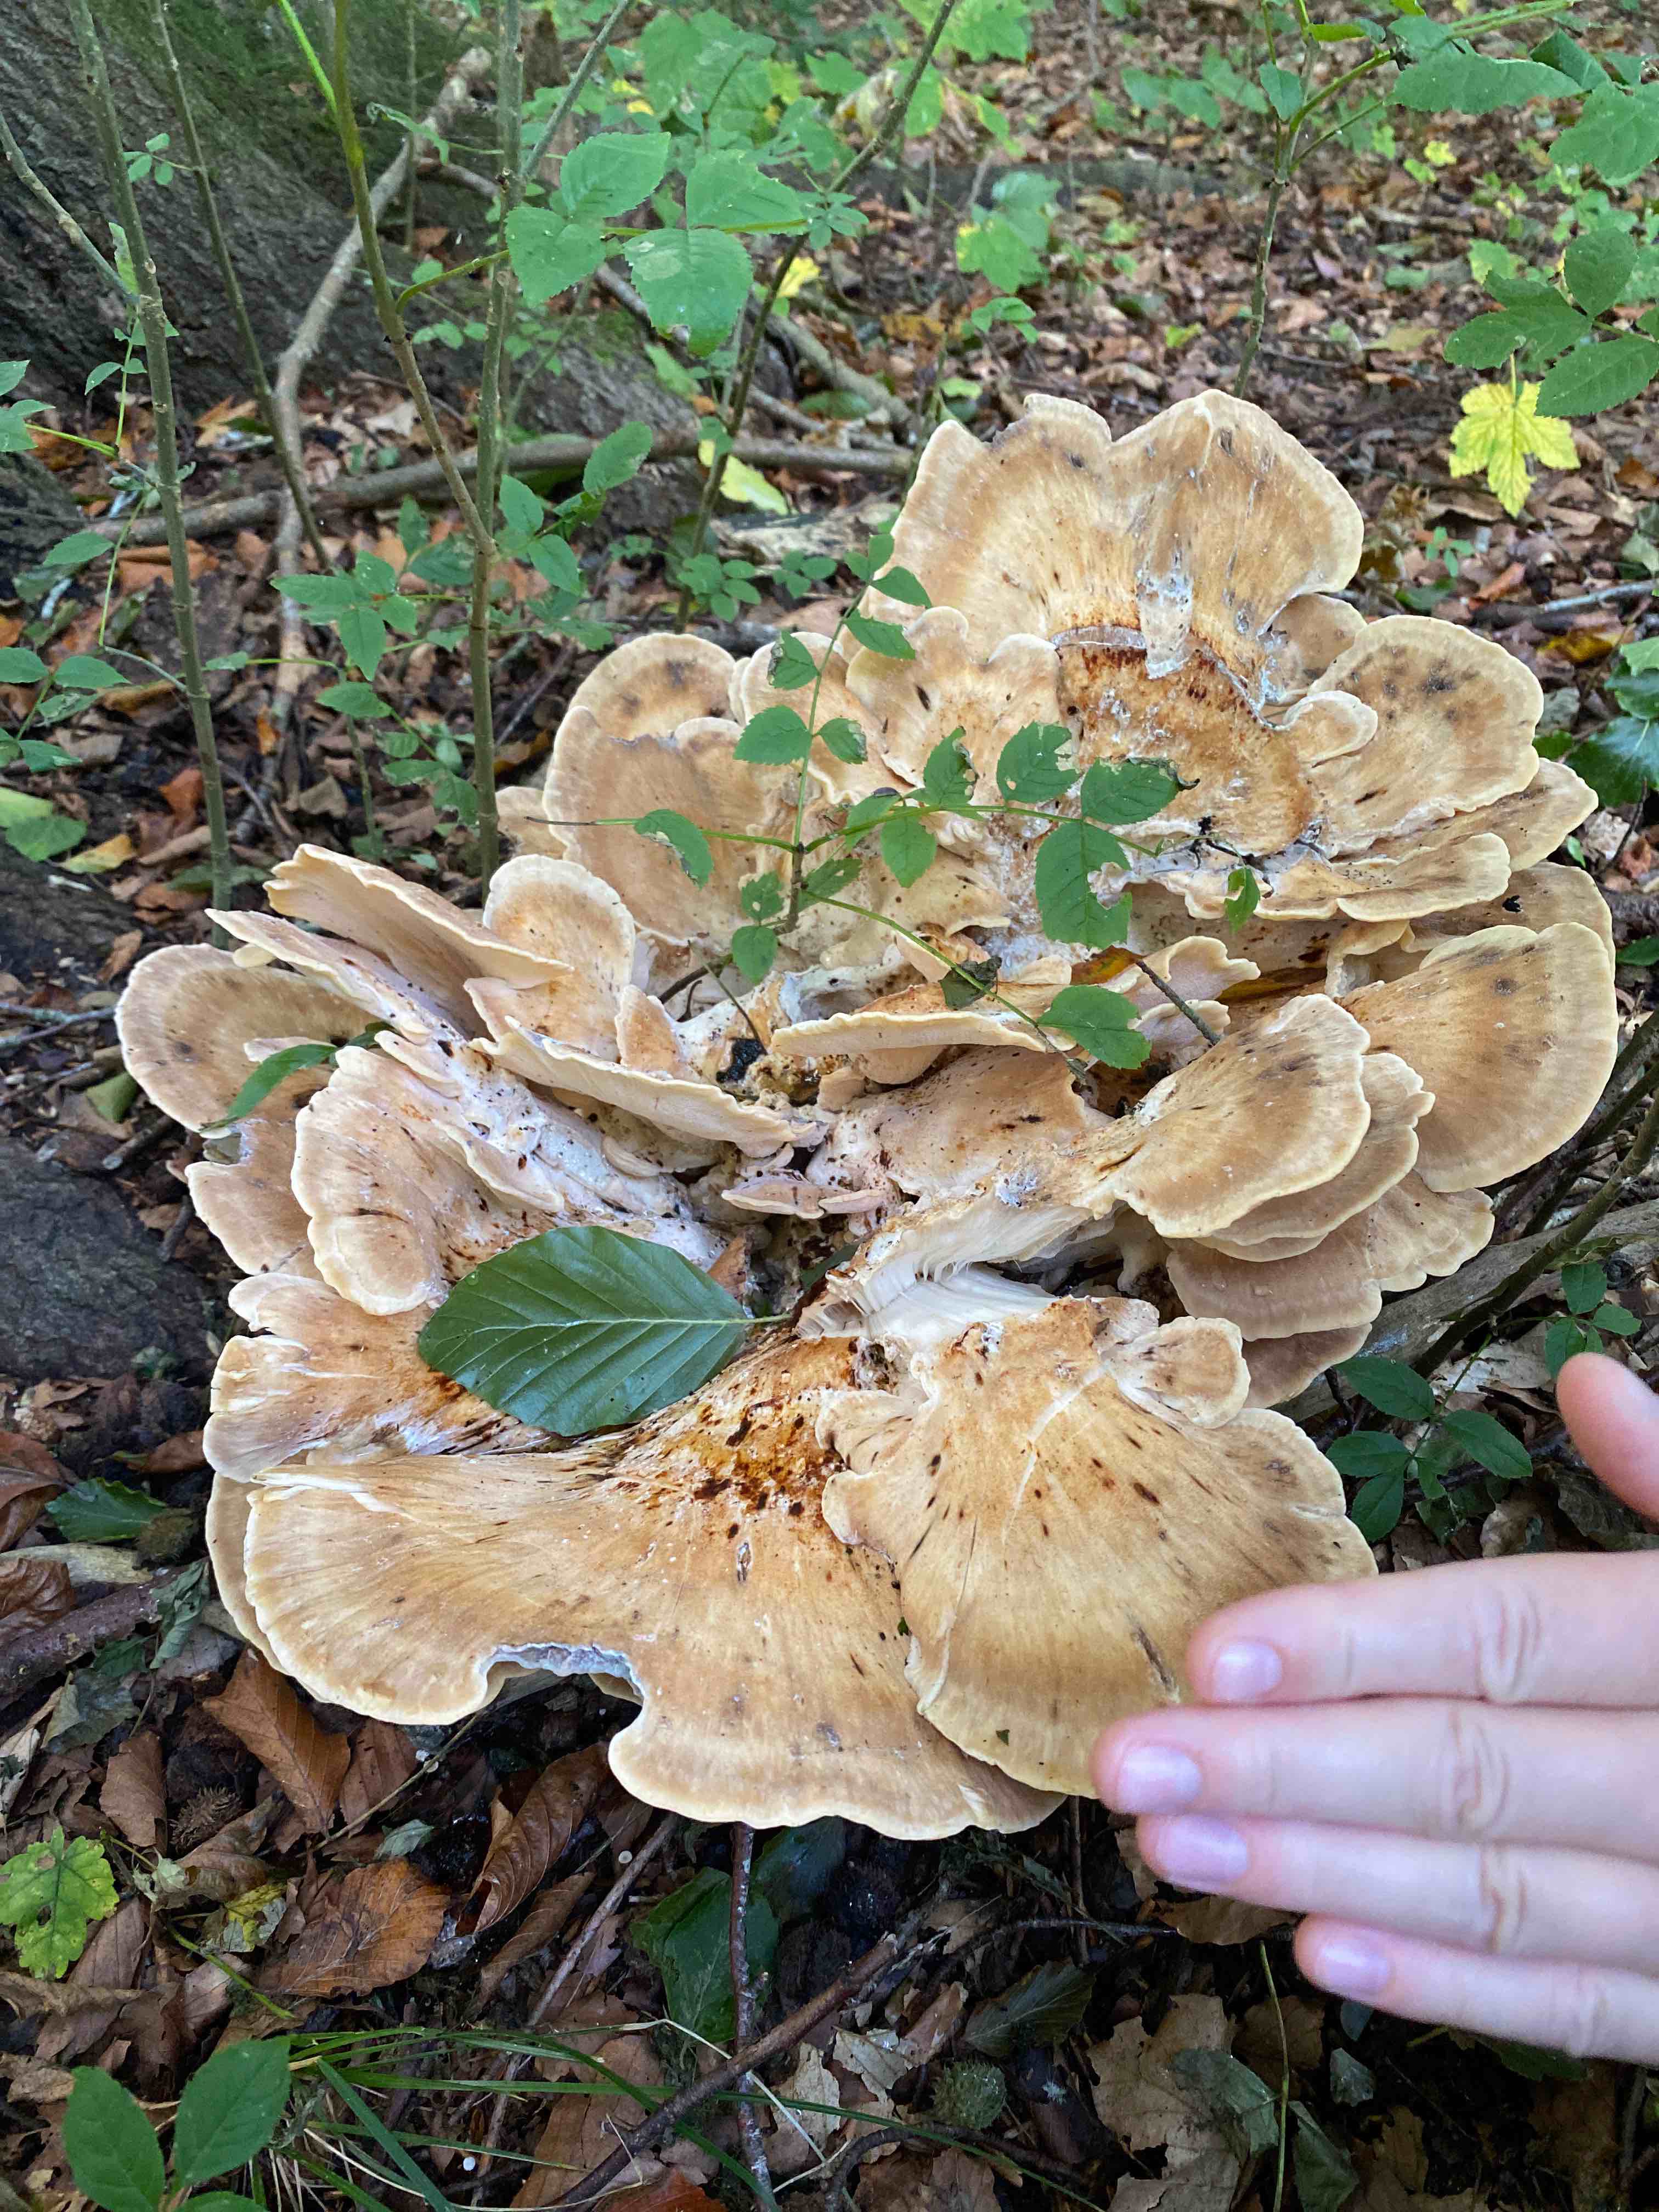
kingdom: Fungi
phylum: Basidiomycota
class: Agaricomycetes
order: Polyporales
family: Meripilaceae
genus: Meripilus
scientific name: Meripilus giganteus
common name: kæmpeporesvamp
